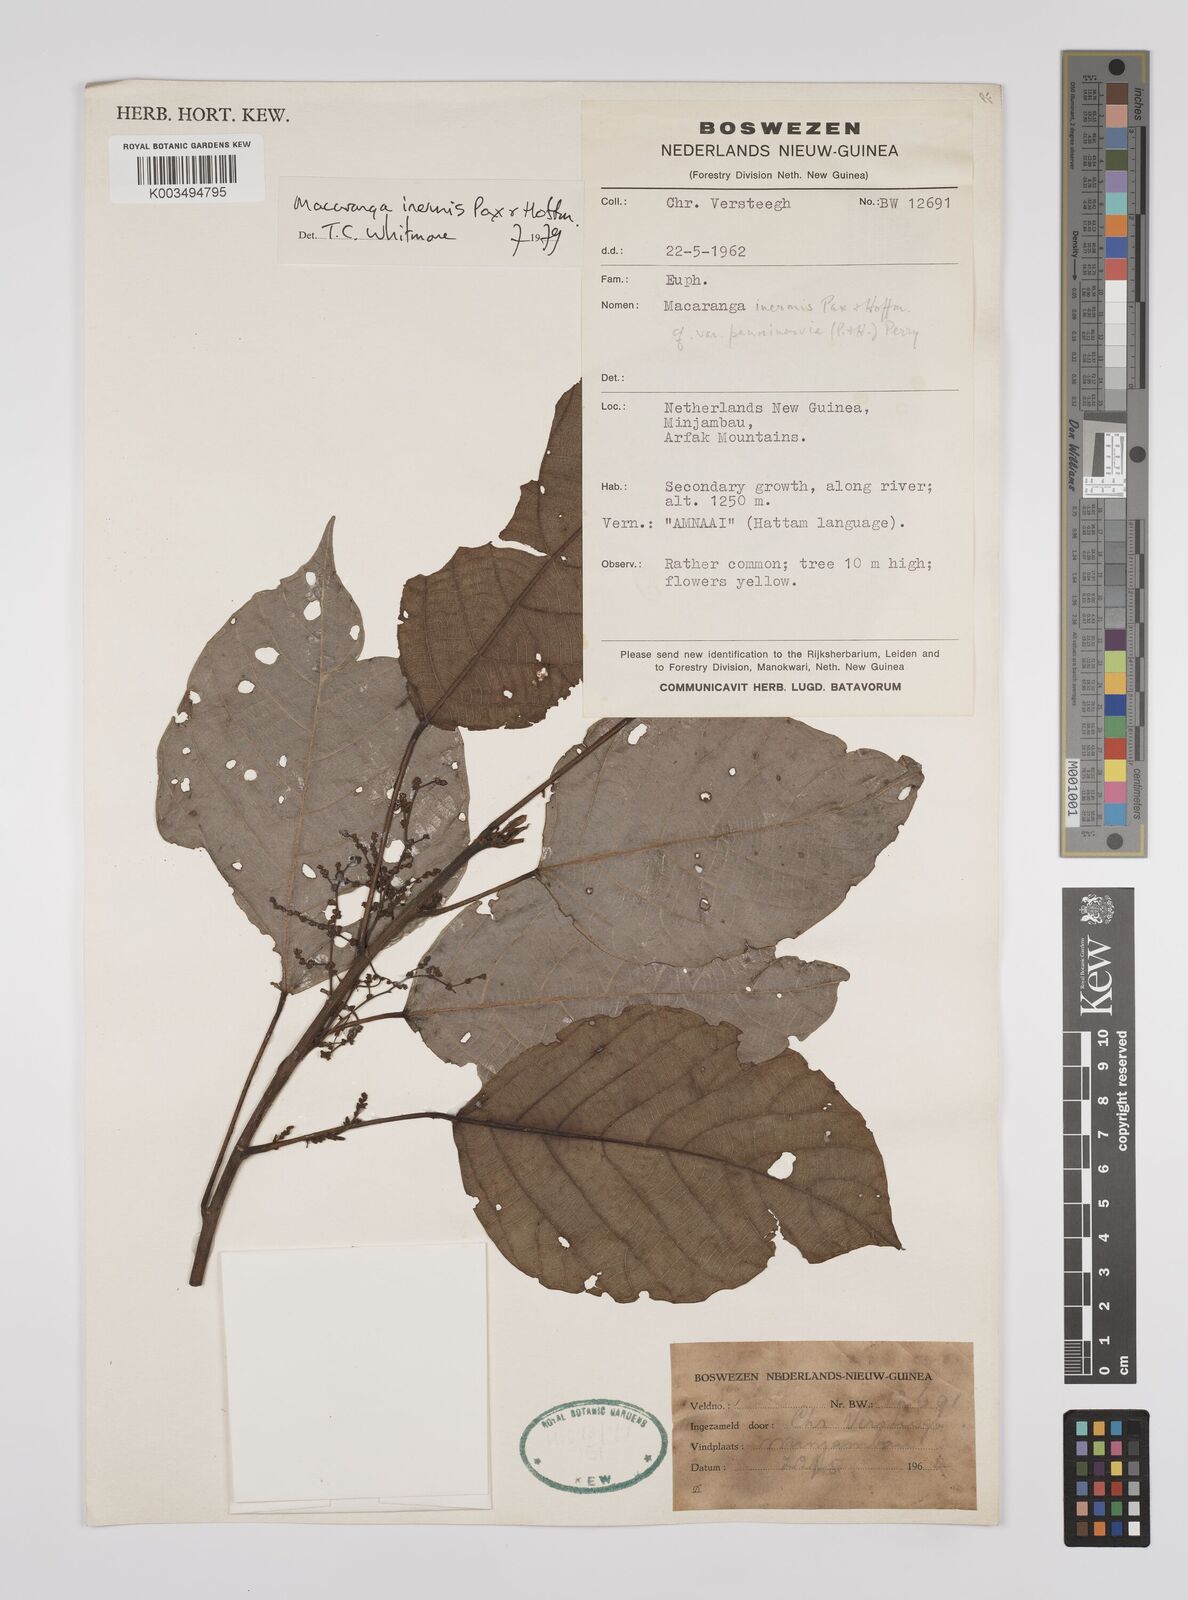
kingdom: Plantae
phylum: Tracheophyta
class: Magnoliopsida
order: Malpighiales
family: Euphorbiaceae
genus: Macaranga
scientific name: Macaranga inermis
